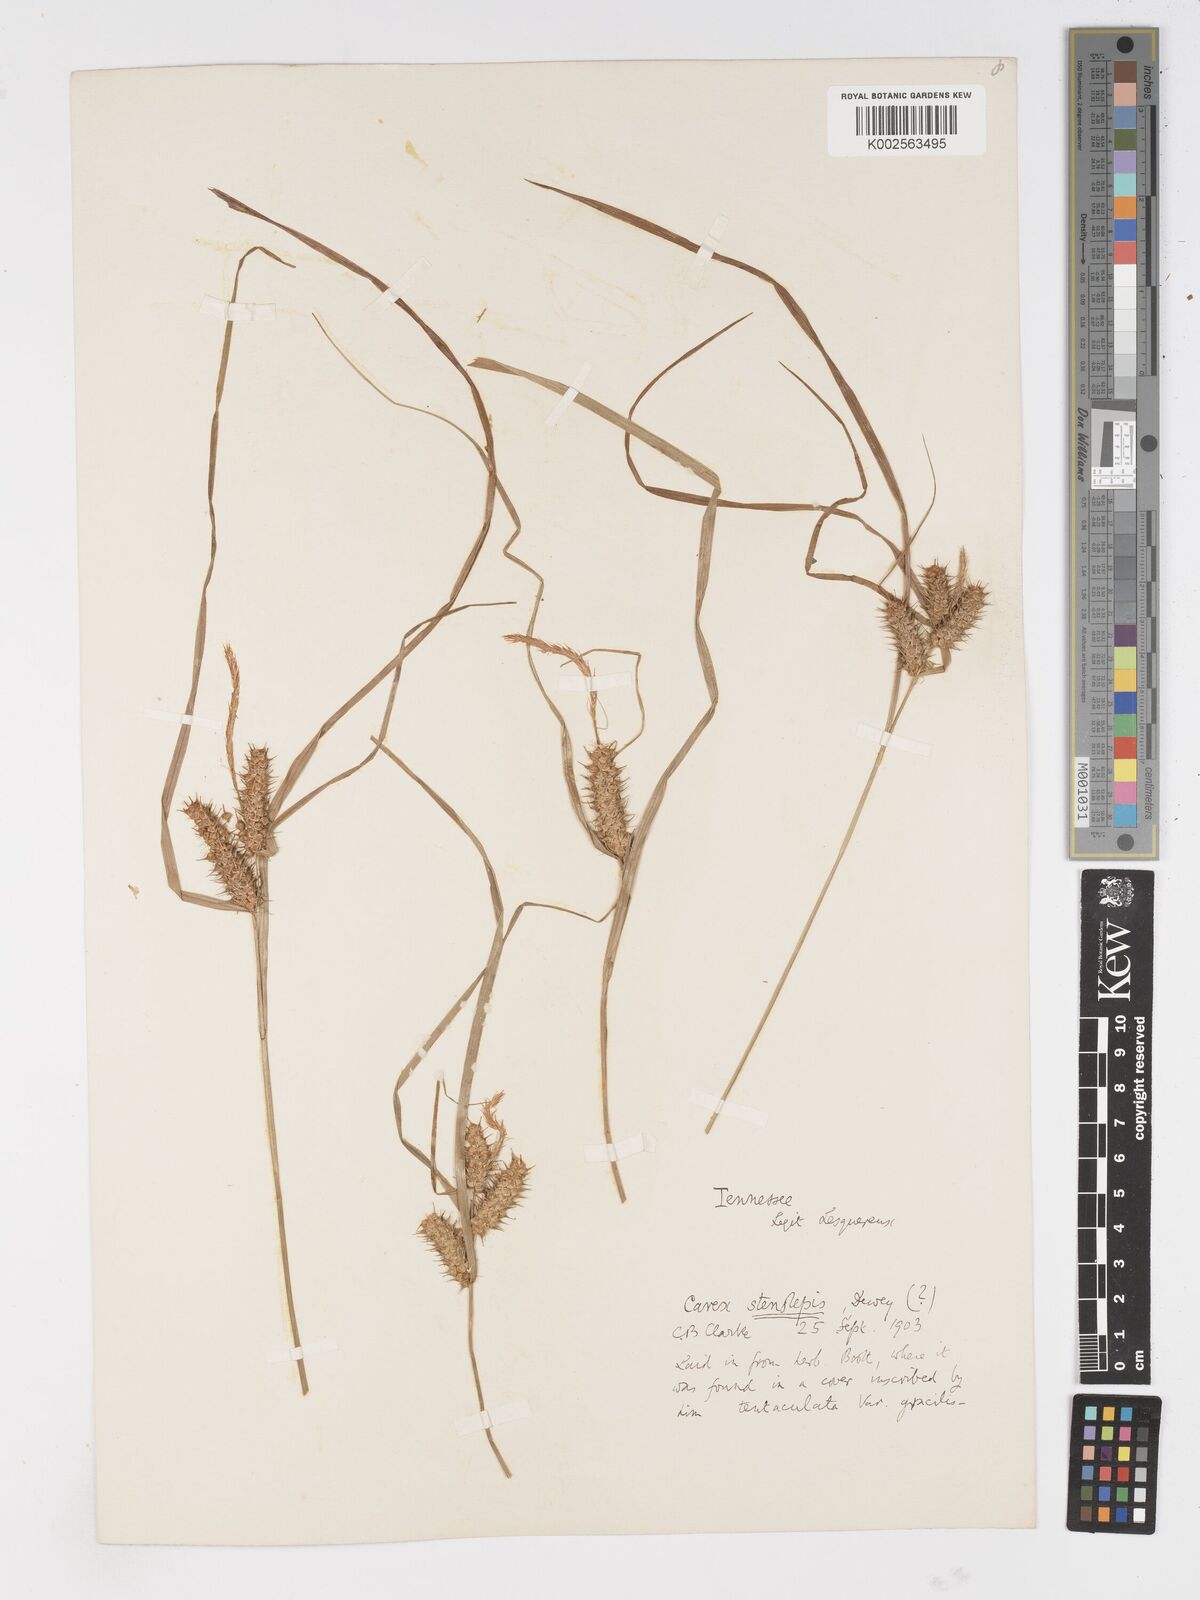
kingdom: Plantae
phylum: Tracheophyta
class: Liliopsida
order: Poales
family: Cyperaceae
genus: Carex
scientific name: Carex frankii
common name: Frank's sedge
